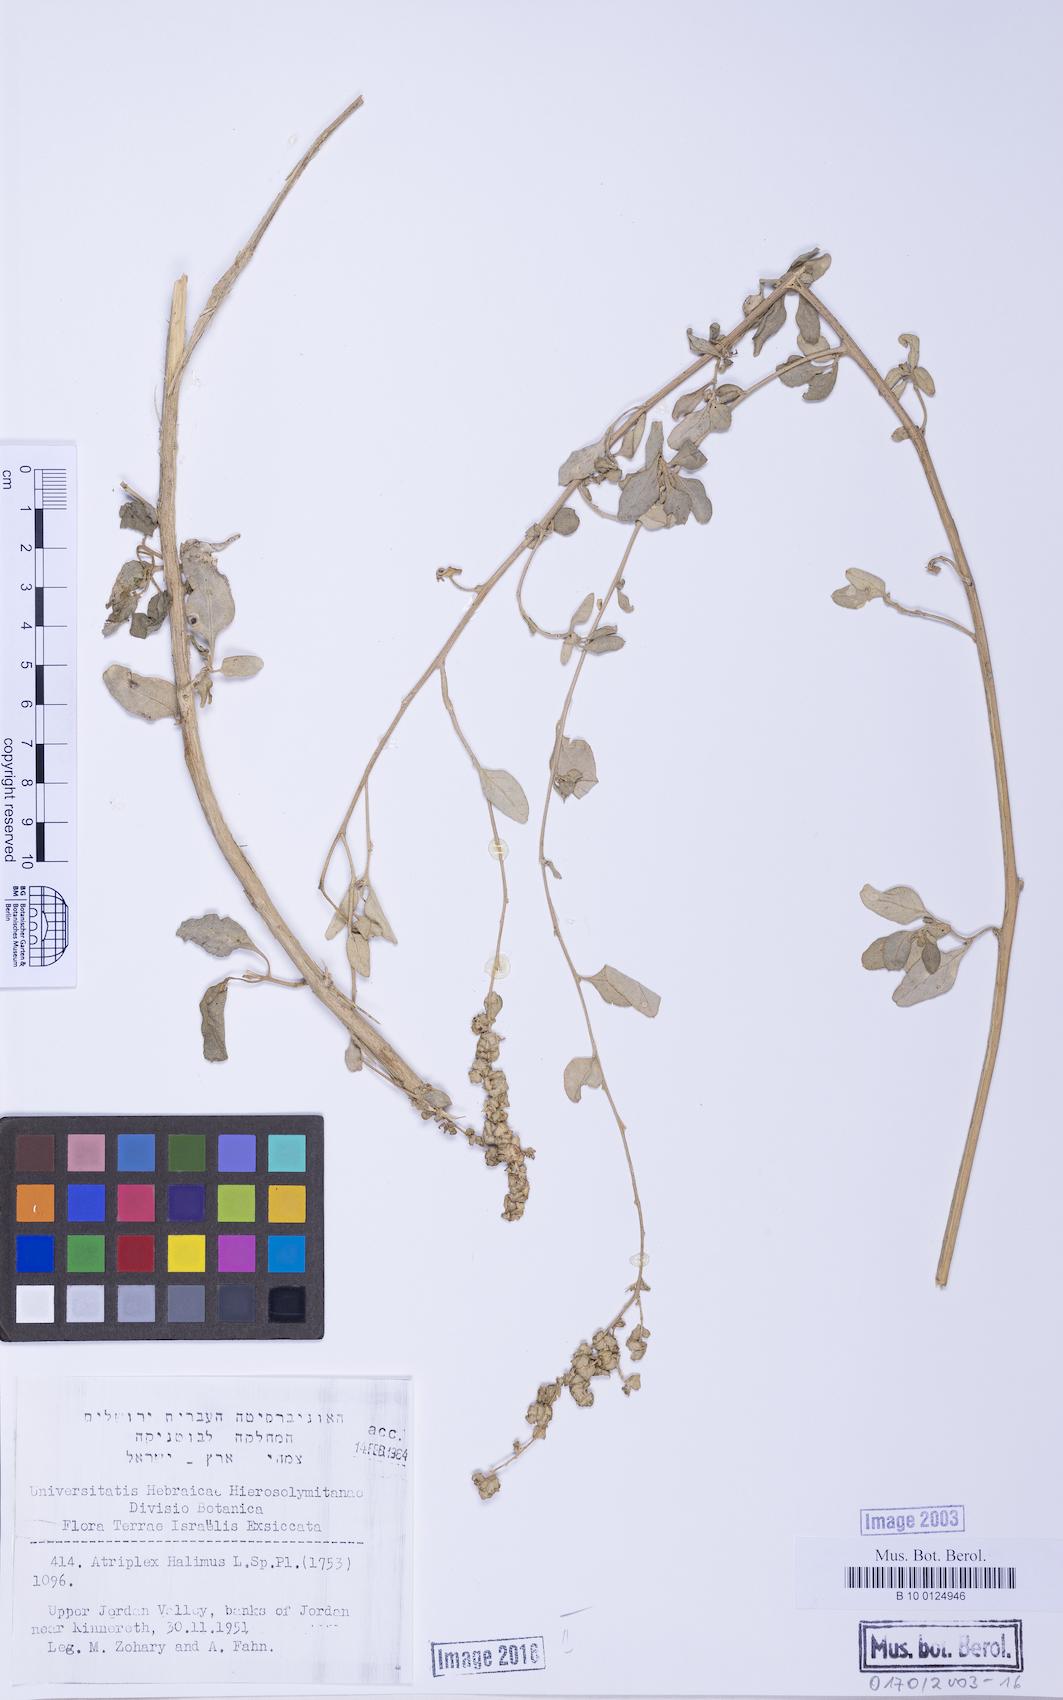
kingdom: Plantae
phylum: Tracheophyta
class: Magnoliopsida
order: Caryophyllales
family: Amaranthaceae
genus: Atriplex
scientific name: Atriplex halimus
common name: Shrubby orache
